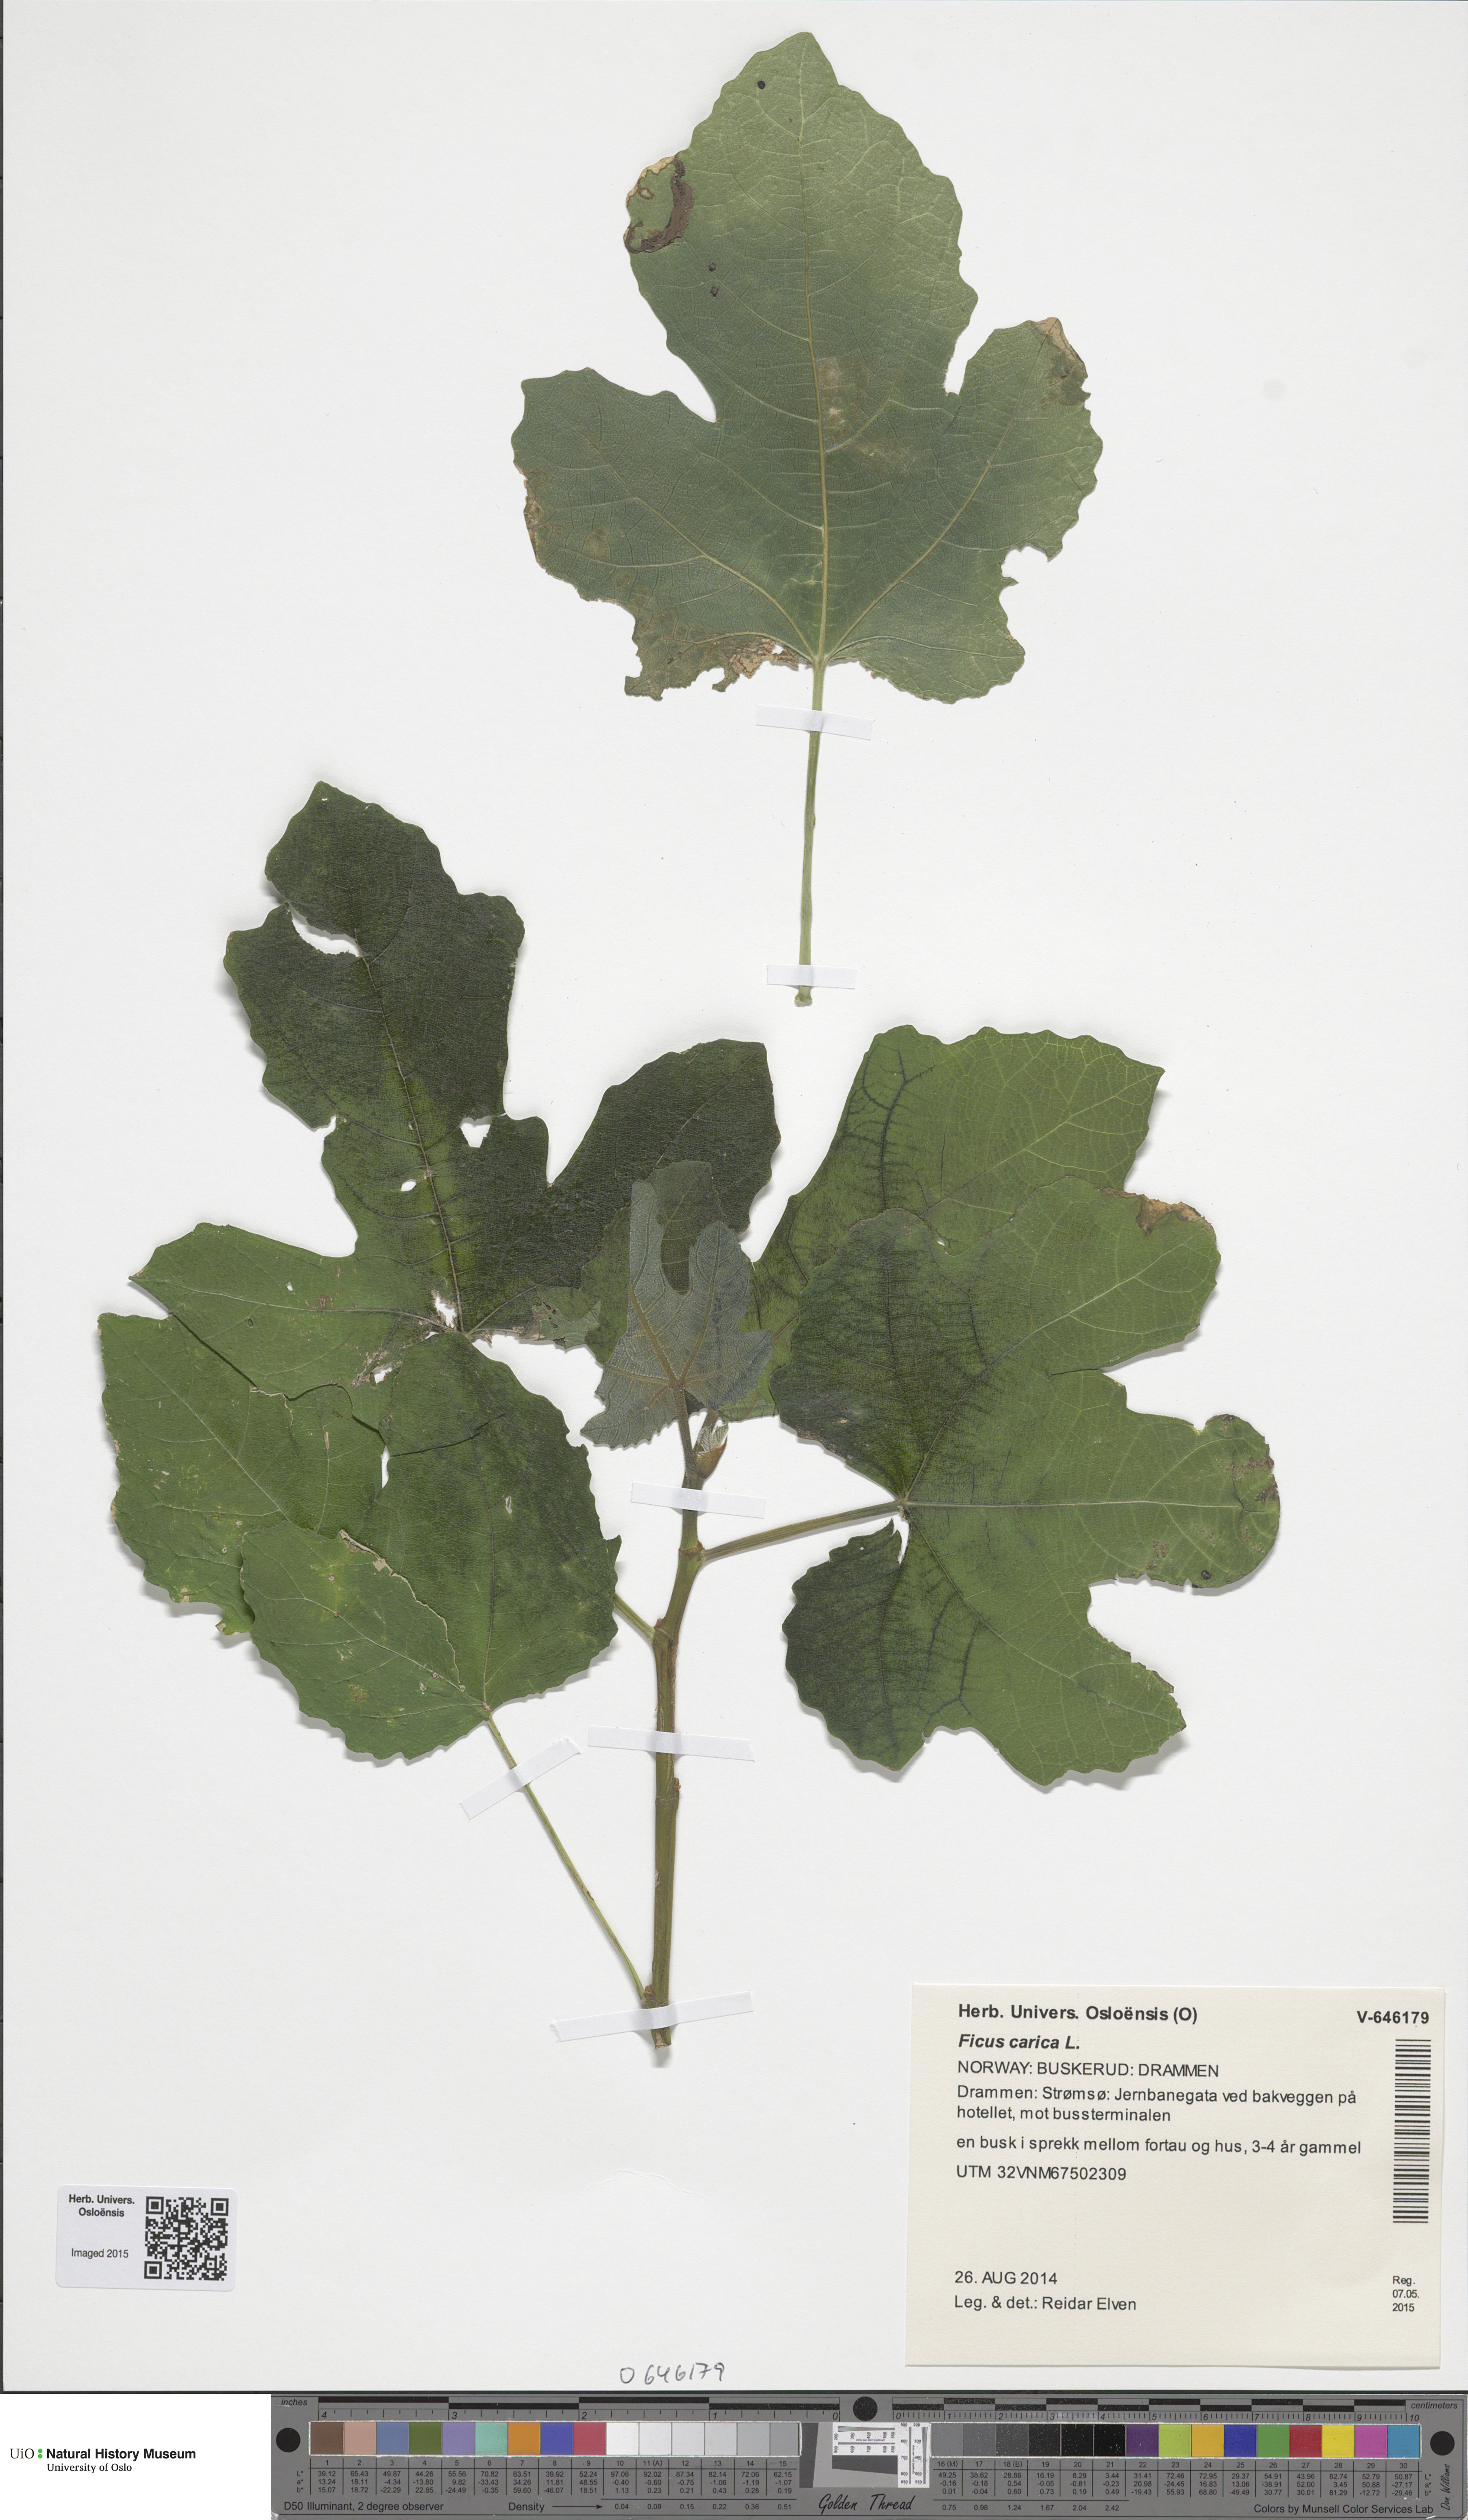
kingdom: Plantae
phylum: Tracheophyta
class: Magnoliopsida
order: Rosales
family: Moraceae
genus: Ficus
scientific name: Ficus carica
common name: Fig
